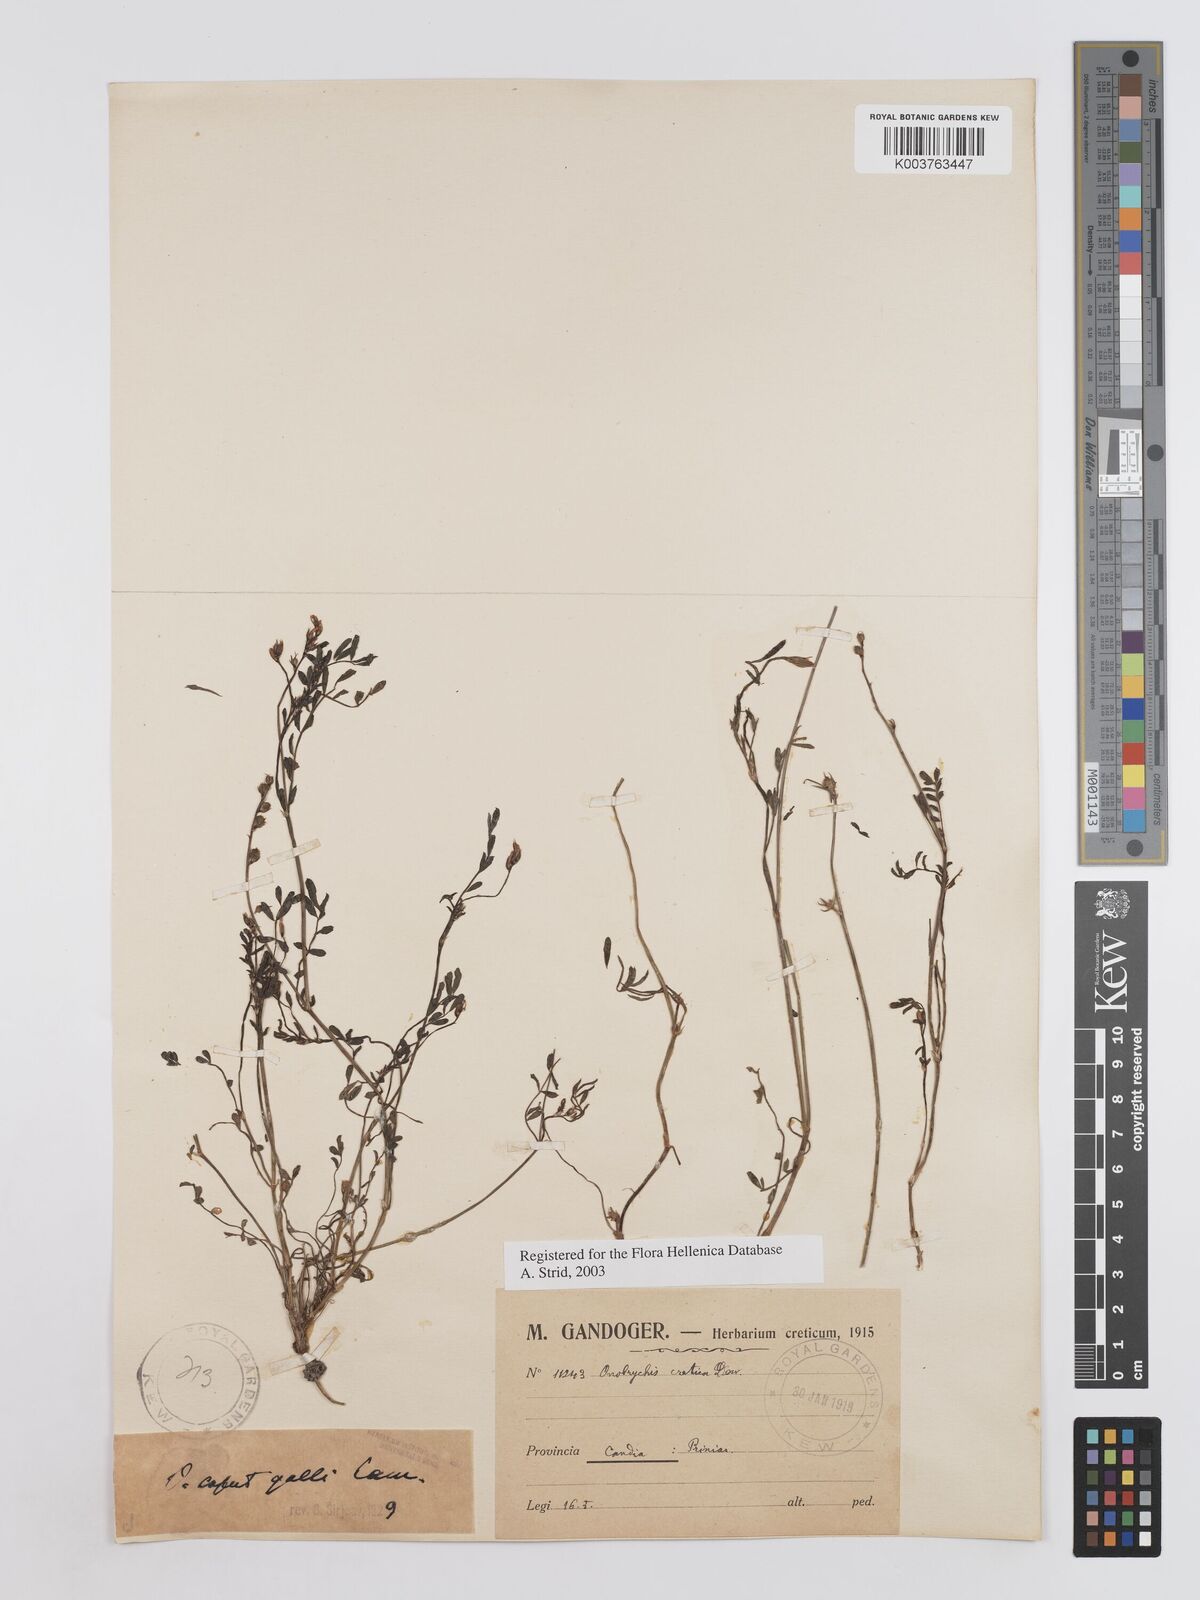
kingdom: Plantae
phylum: Tracheophyta
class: Magnoliopsida
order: Fabales
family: Fabaceae
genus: Onobrychis
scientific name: Onobrychis caput-galli
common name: Cockscomb sainfoin
